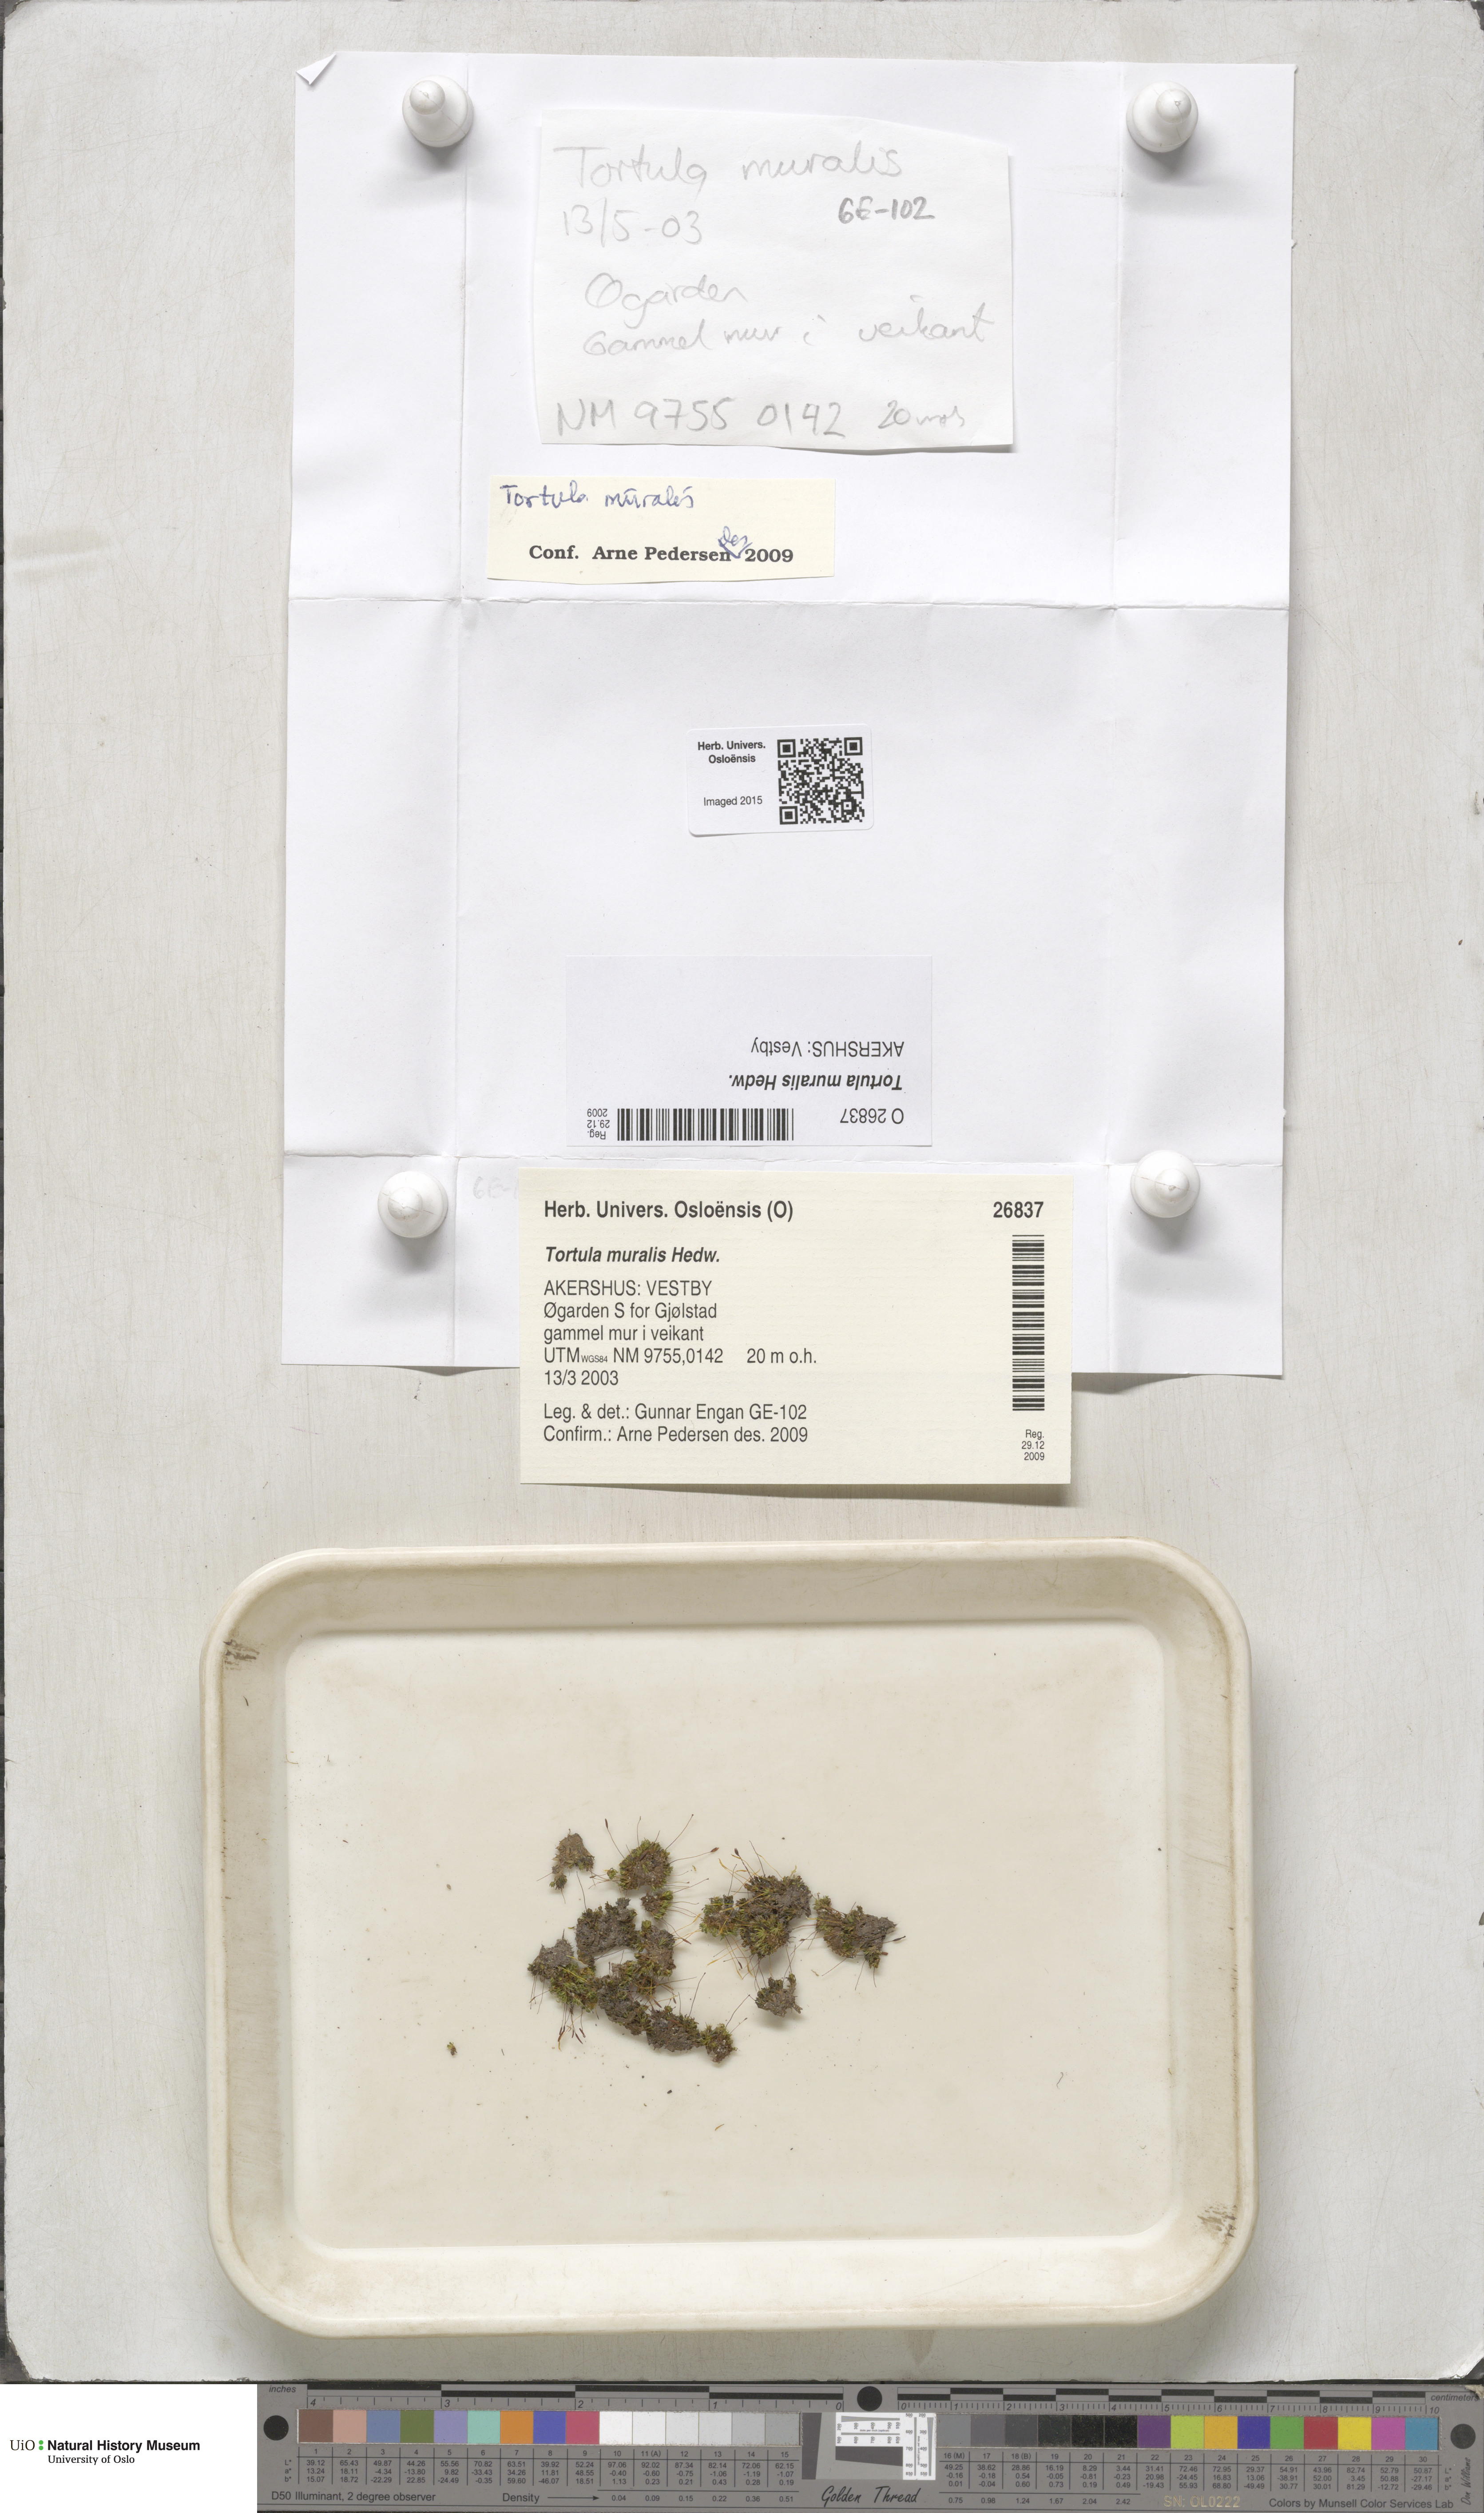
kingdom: Plantae
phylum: Bryophyta
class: Bryopsida
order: Pottiales
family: Pottiaceae
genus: Tortula
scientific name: Tortula muralis
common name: Wall screw-moss
